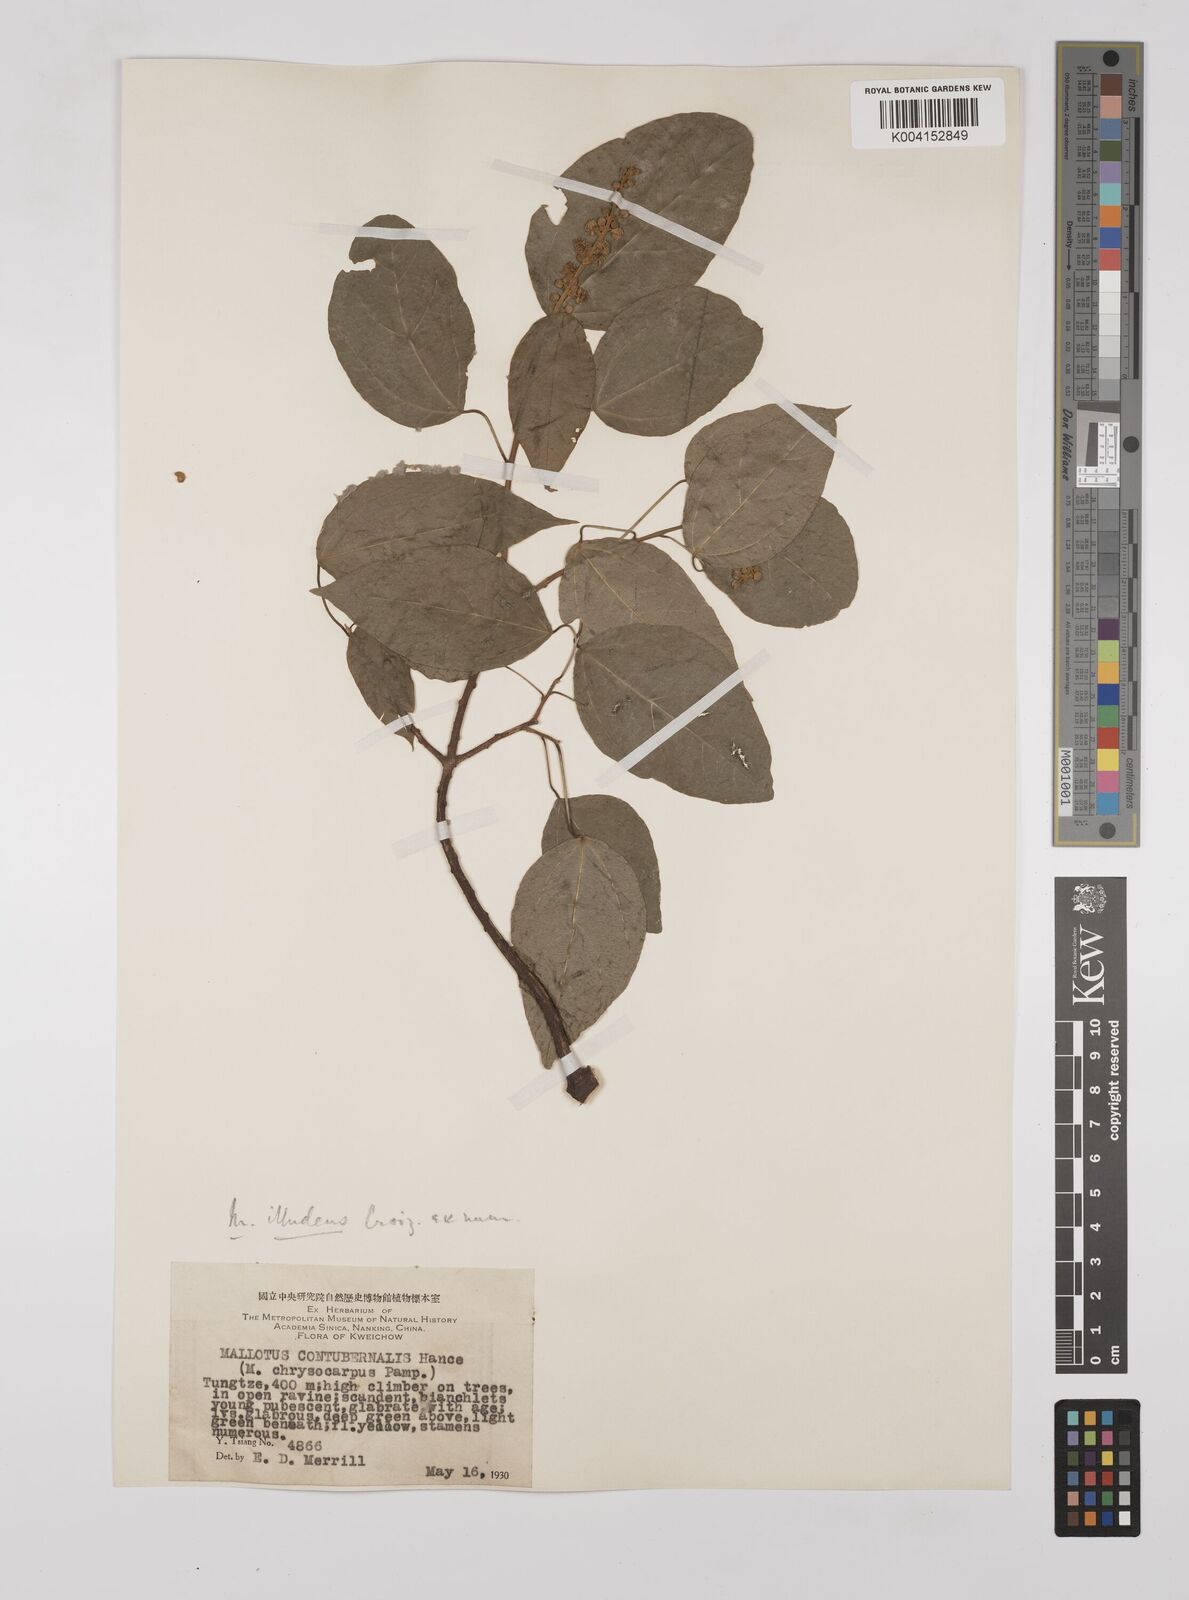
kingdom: Plantae
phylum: Tracheophyta
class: Magnoliopsida
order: Malpighiales
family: Euphorbiaceae
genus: Mallotus
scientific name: Mallotus illudens
